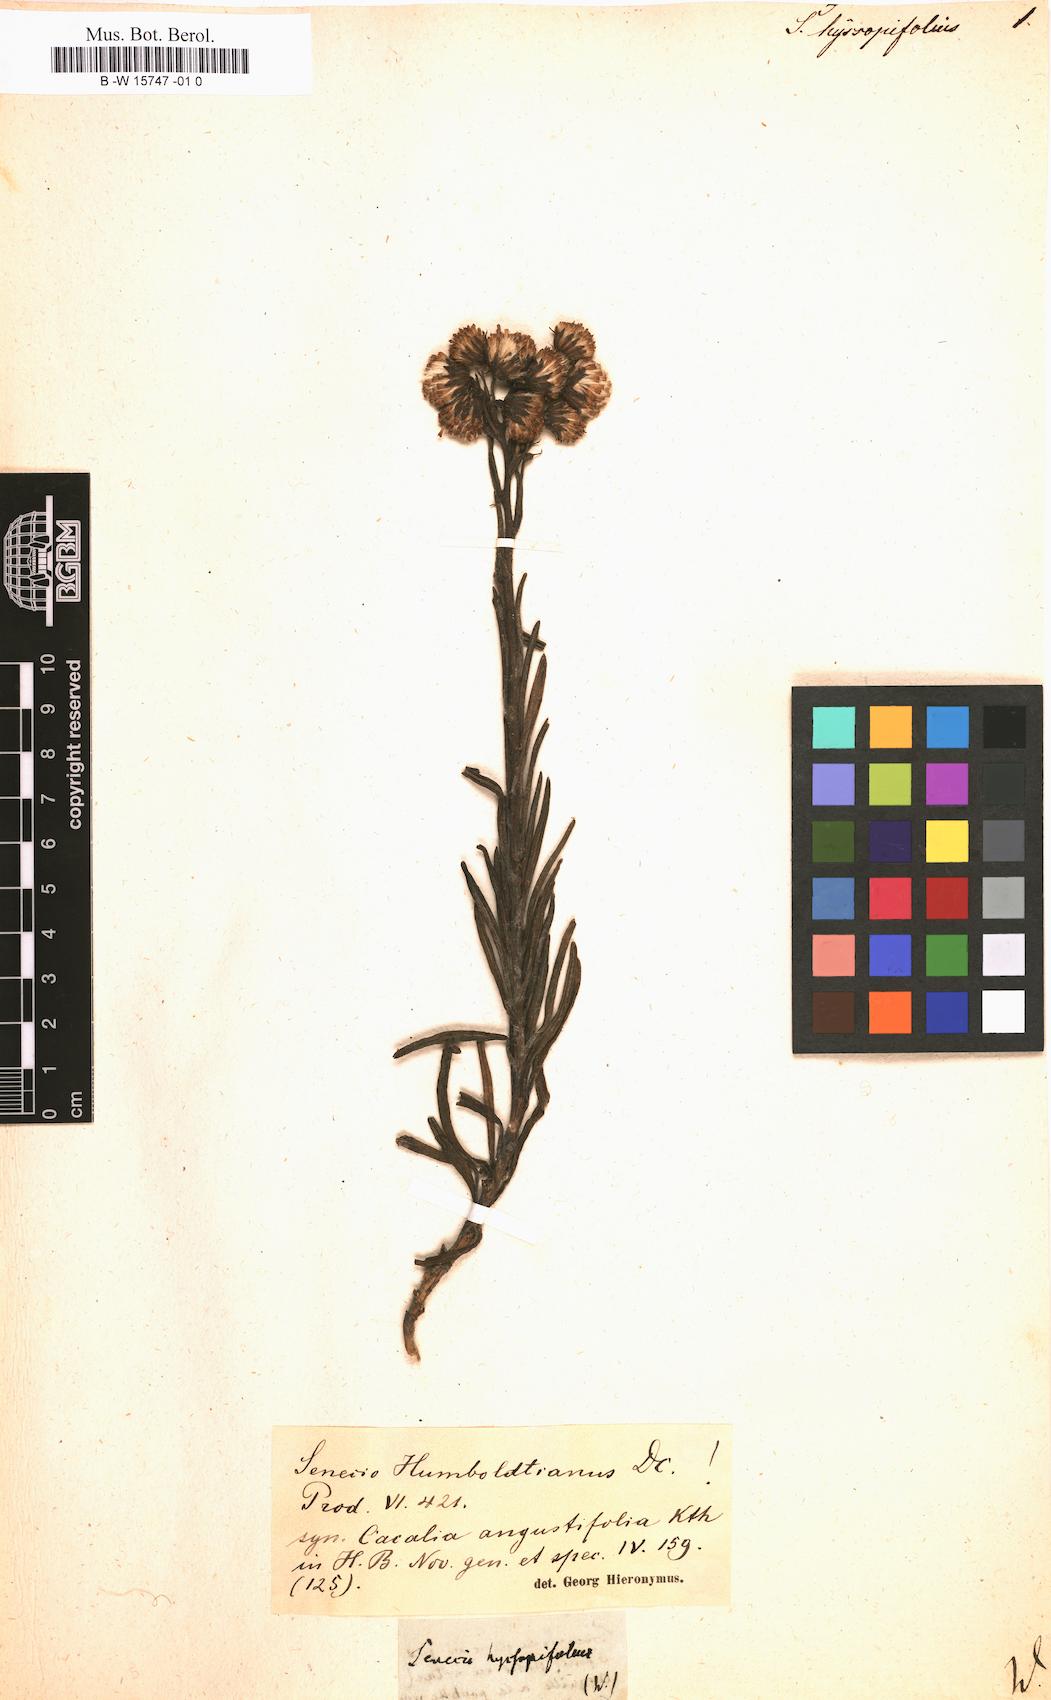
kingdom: Plantae
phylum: Tracheophyta
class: Magnoliopsida
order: Asterales
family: Asteraceae
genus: Senecio
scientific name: Senecio
